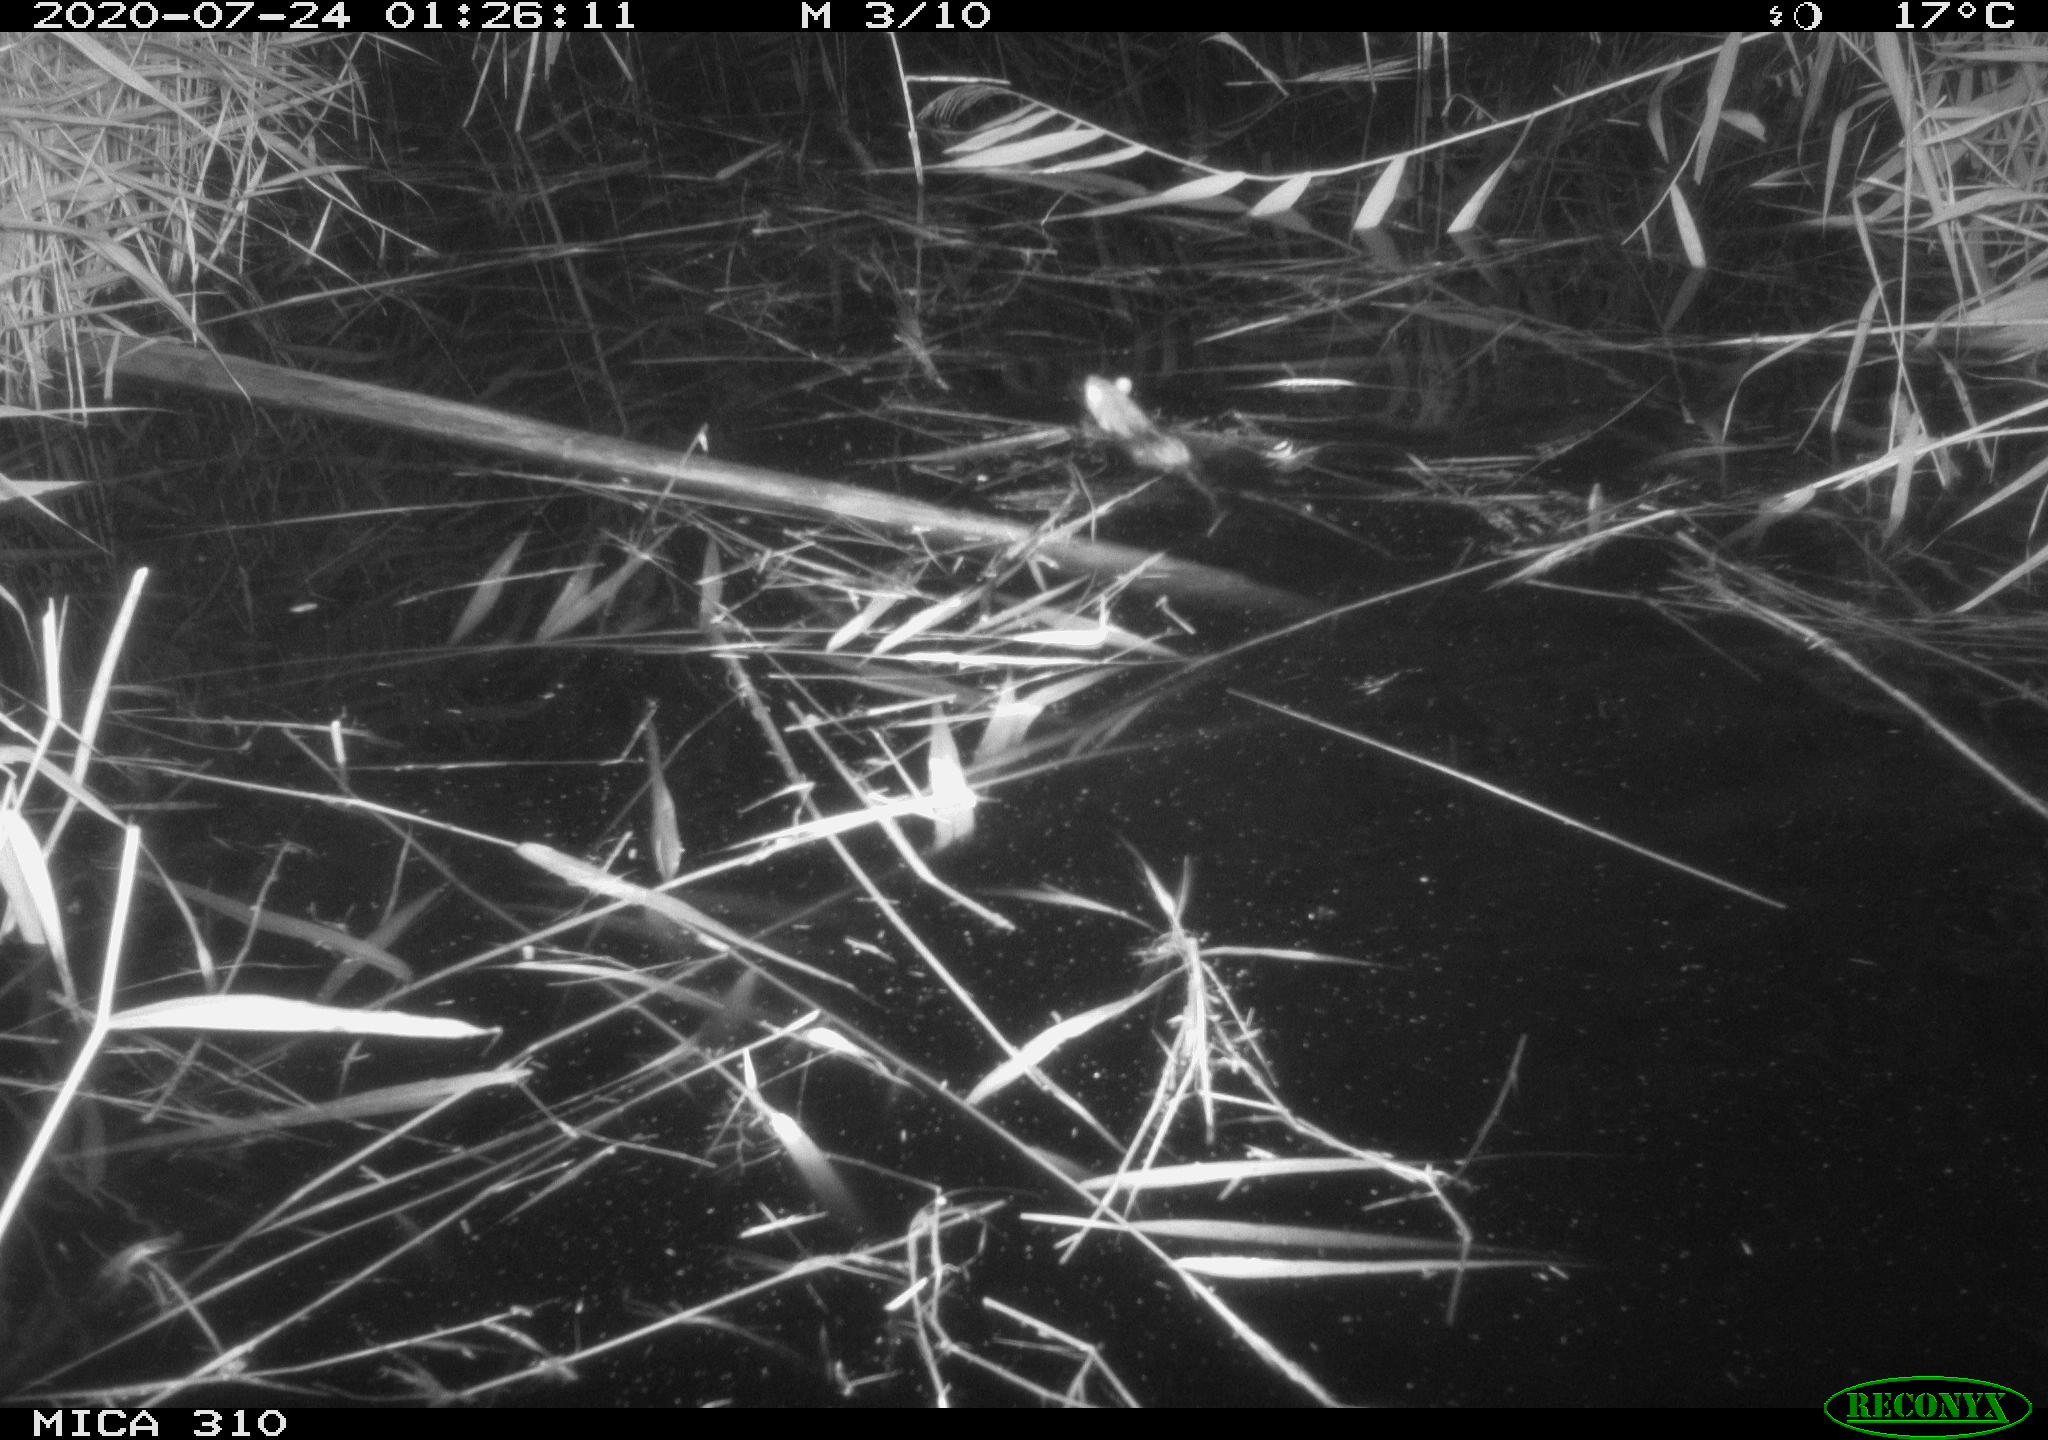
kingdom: Animalia
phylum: Chordata
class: Mammalia
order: Rodentia
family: Muridae
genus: Rattus
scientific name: Rattus norvegicus
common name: Brown rat
